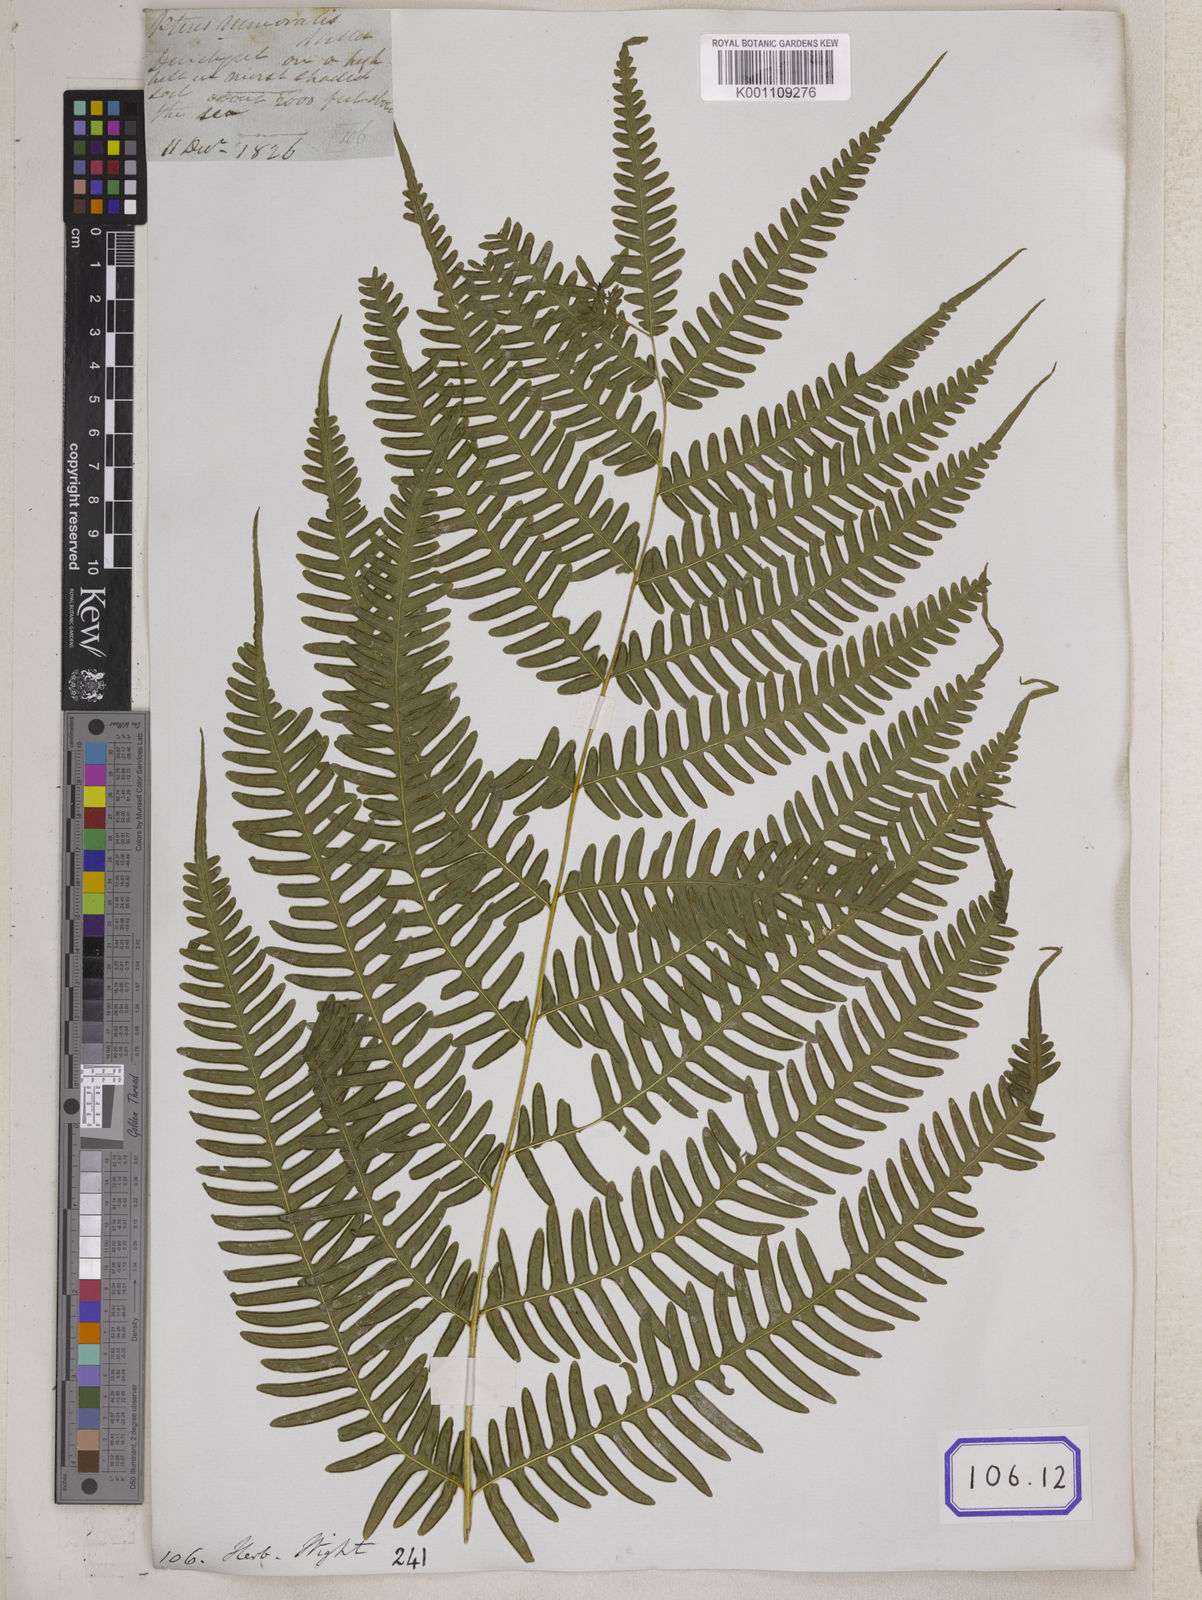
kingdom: Plantae
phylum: Tracheophyta
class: Polypodiopsida
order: Polypodiales
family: Pteridaceae
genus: Pteris
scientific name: Pteris linearis
